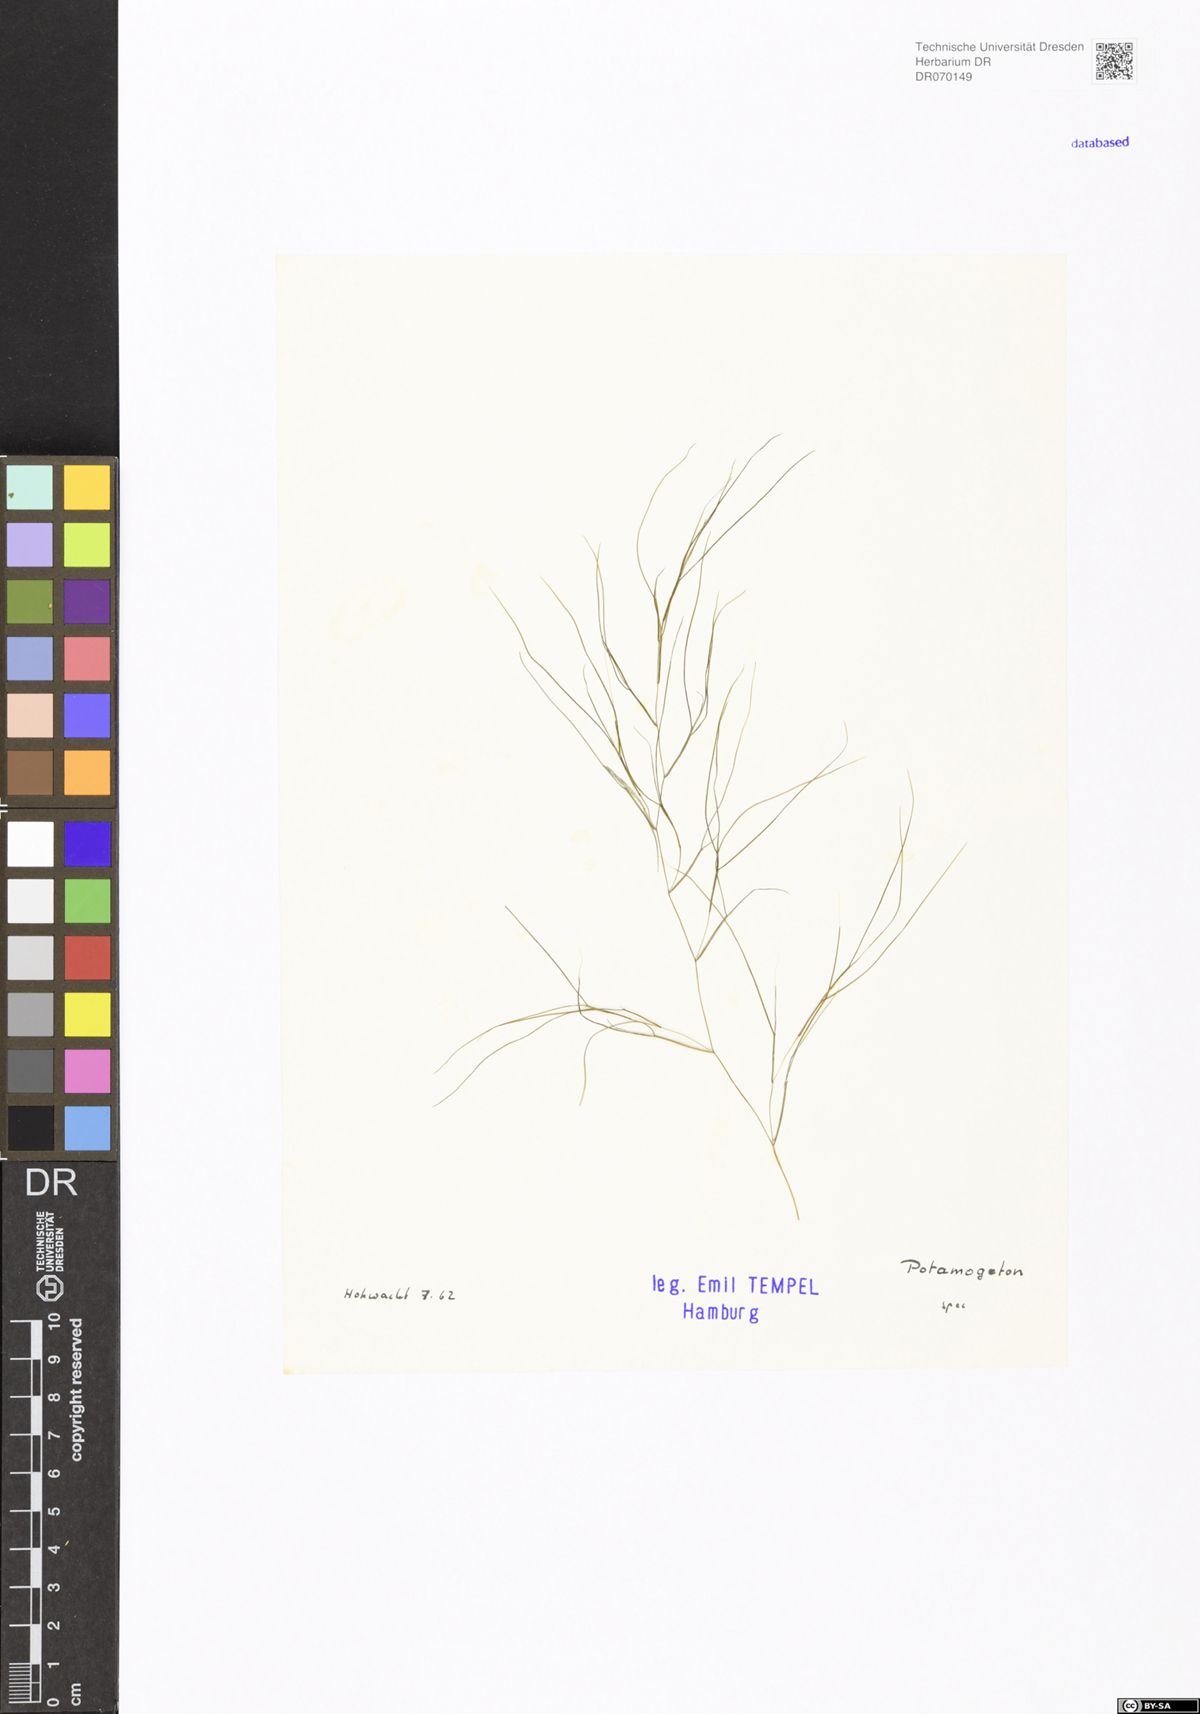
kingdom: Plantae
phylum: Tracheophyta
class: Liliopsida
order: Alismatales
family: Potamogetonaceae
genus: Potamogeton
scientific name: Potamogeton
